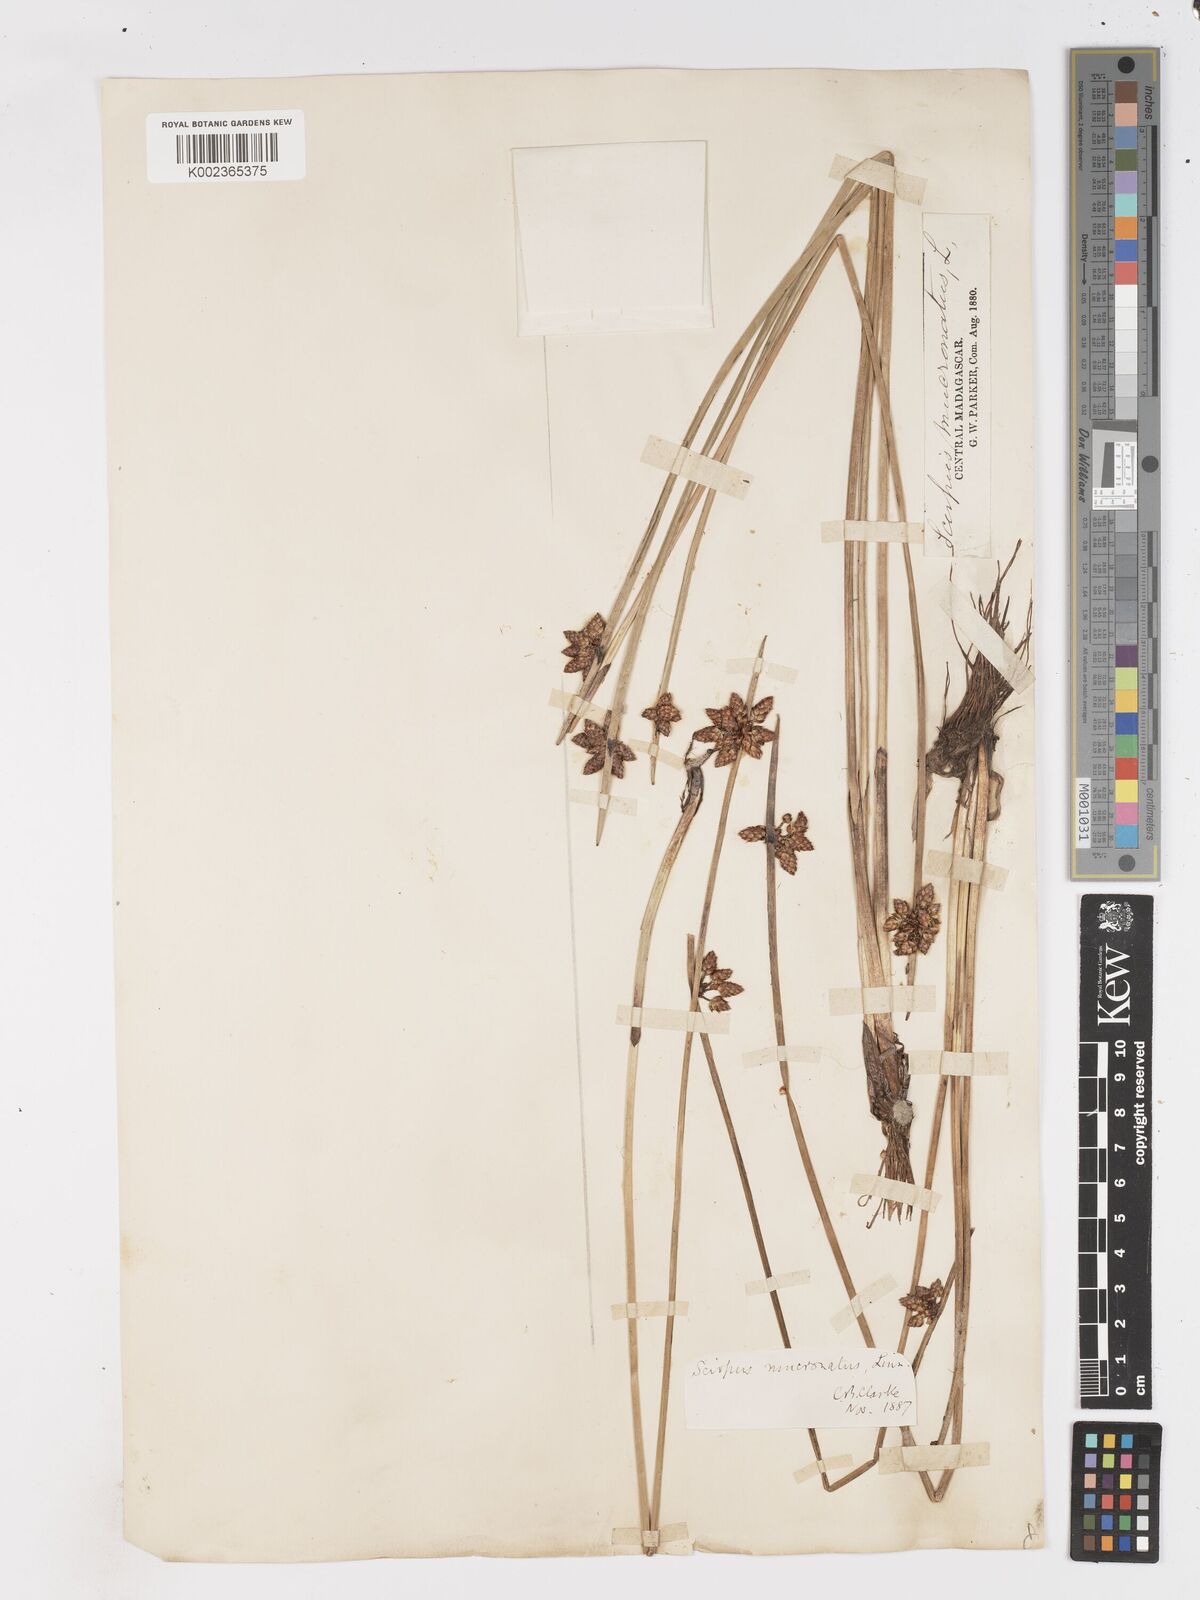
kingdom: Plantae
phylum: Tracheophyta
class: Liliopsida
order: Poales
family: Cyperaceae
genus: Schoenoplectiella
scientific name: Schoenoplectiella mucronata
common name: Bog bulrush
